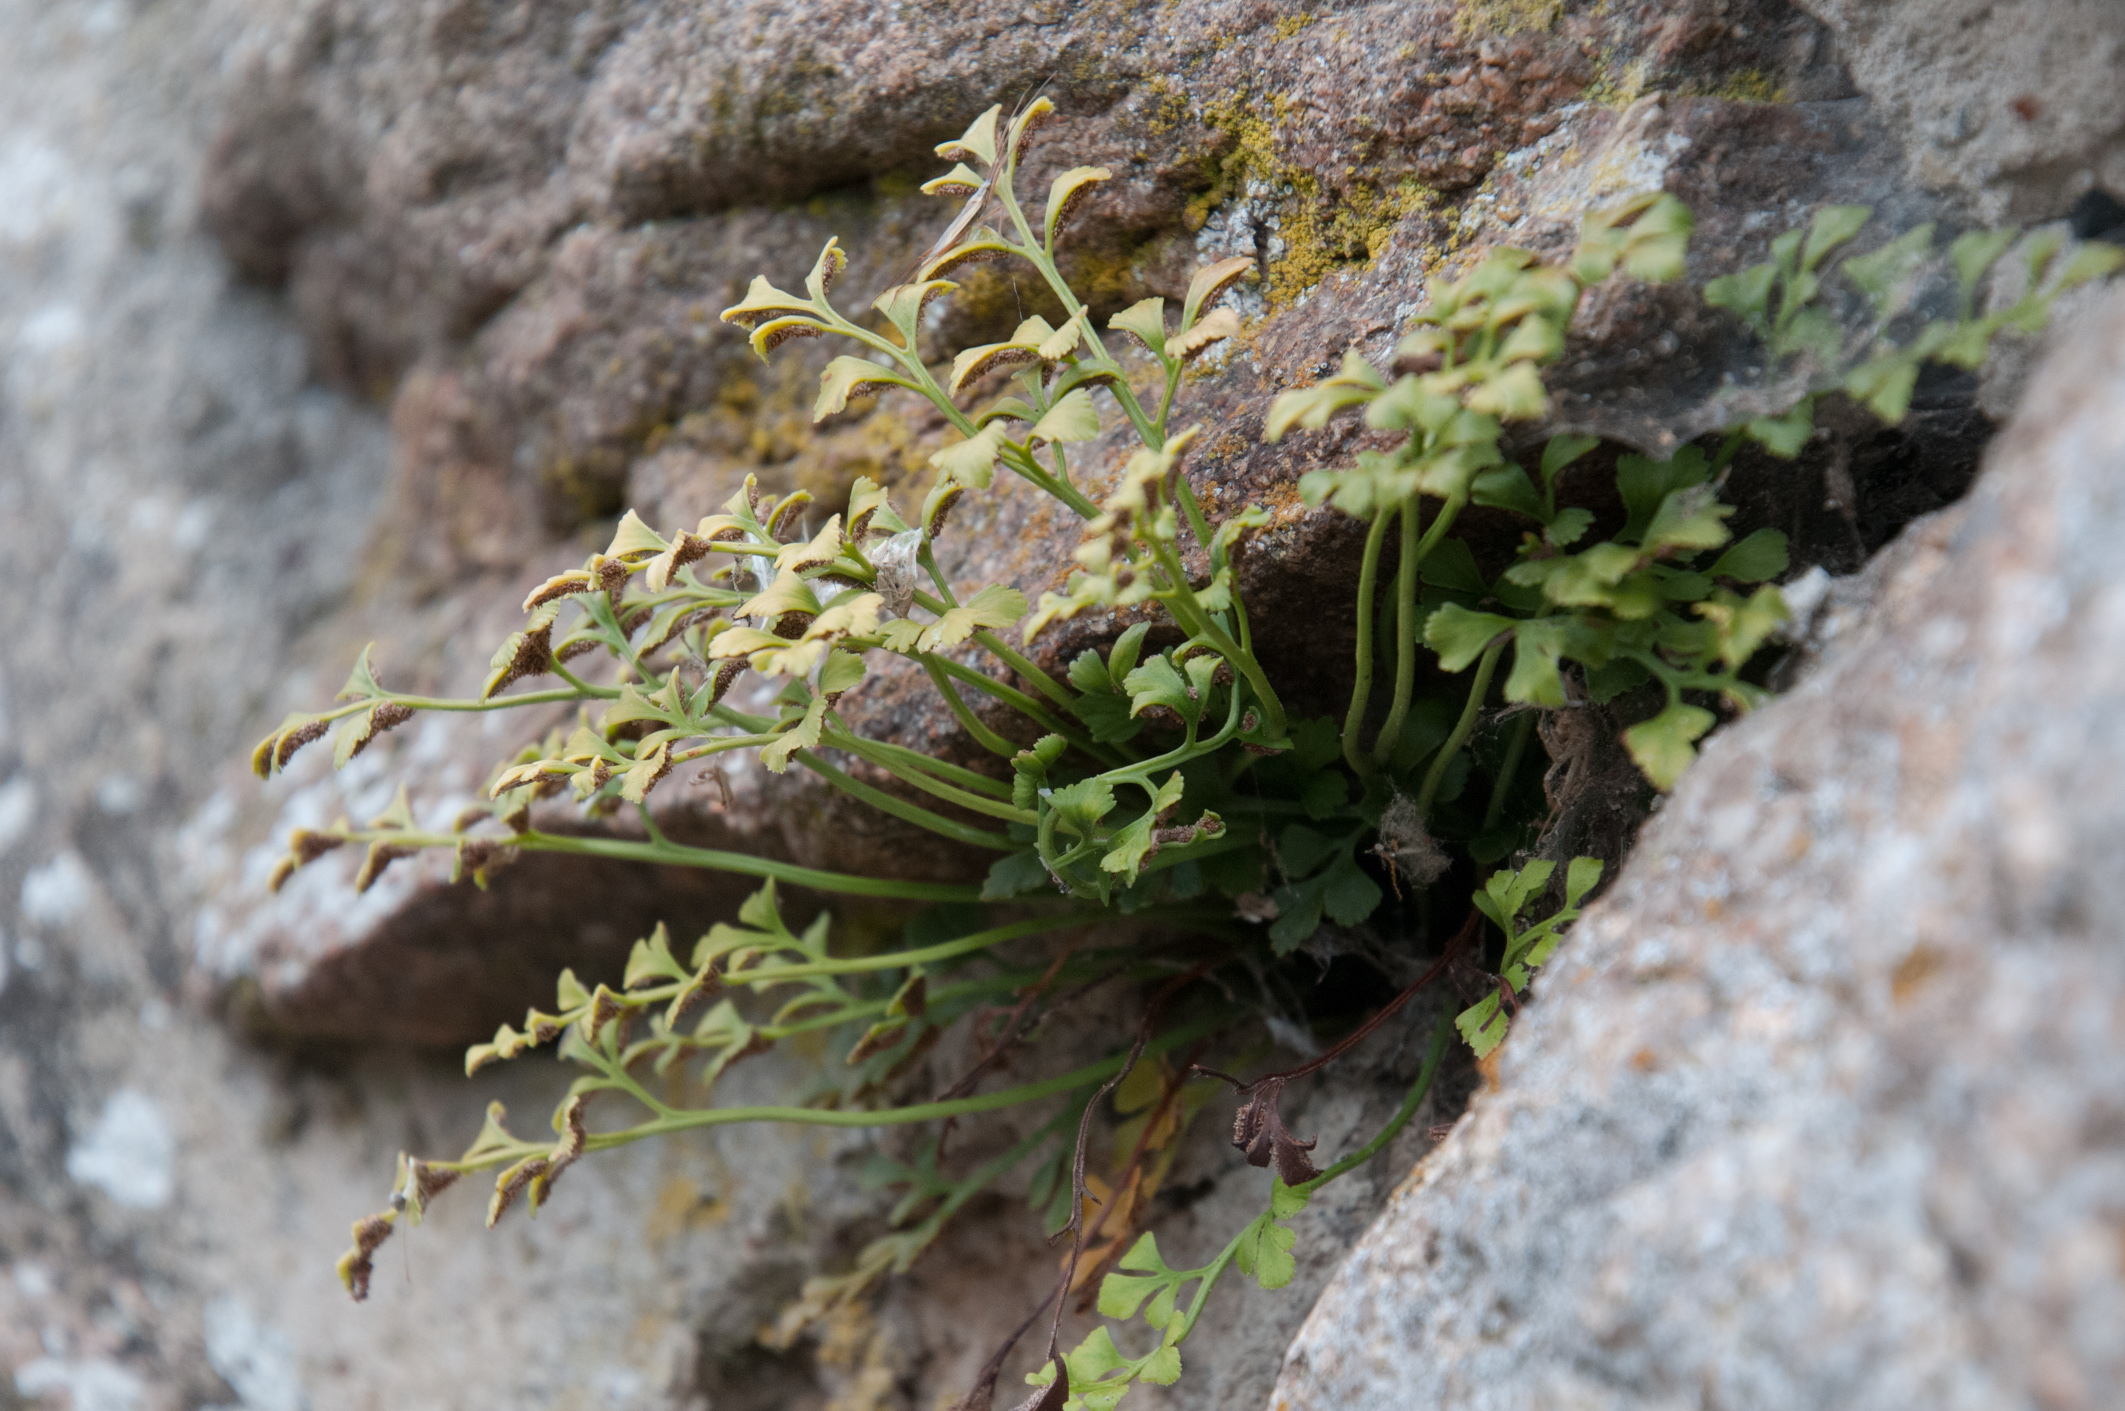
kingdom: Plantae
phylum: Tracheophyta
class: Polypodiopsida
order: Polypodiales
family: Aspleniaceae
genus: Asplenium
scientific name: Asplenium ruta-muraria
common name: Wall-rue
